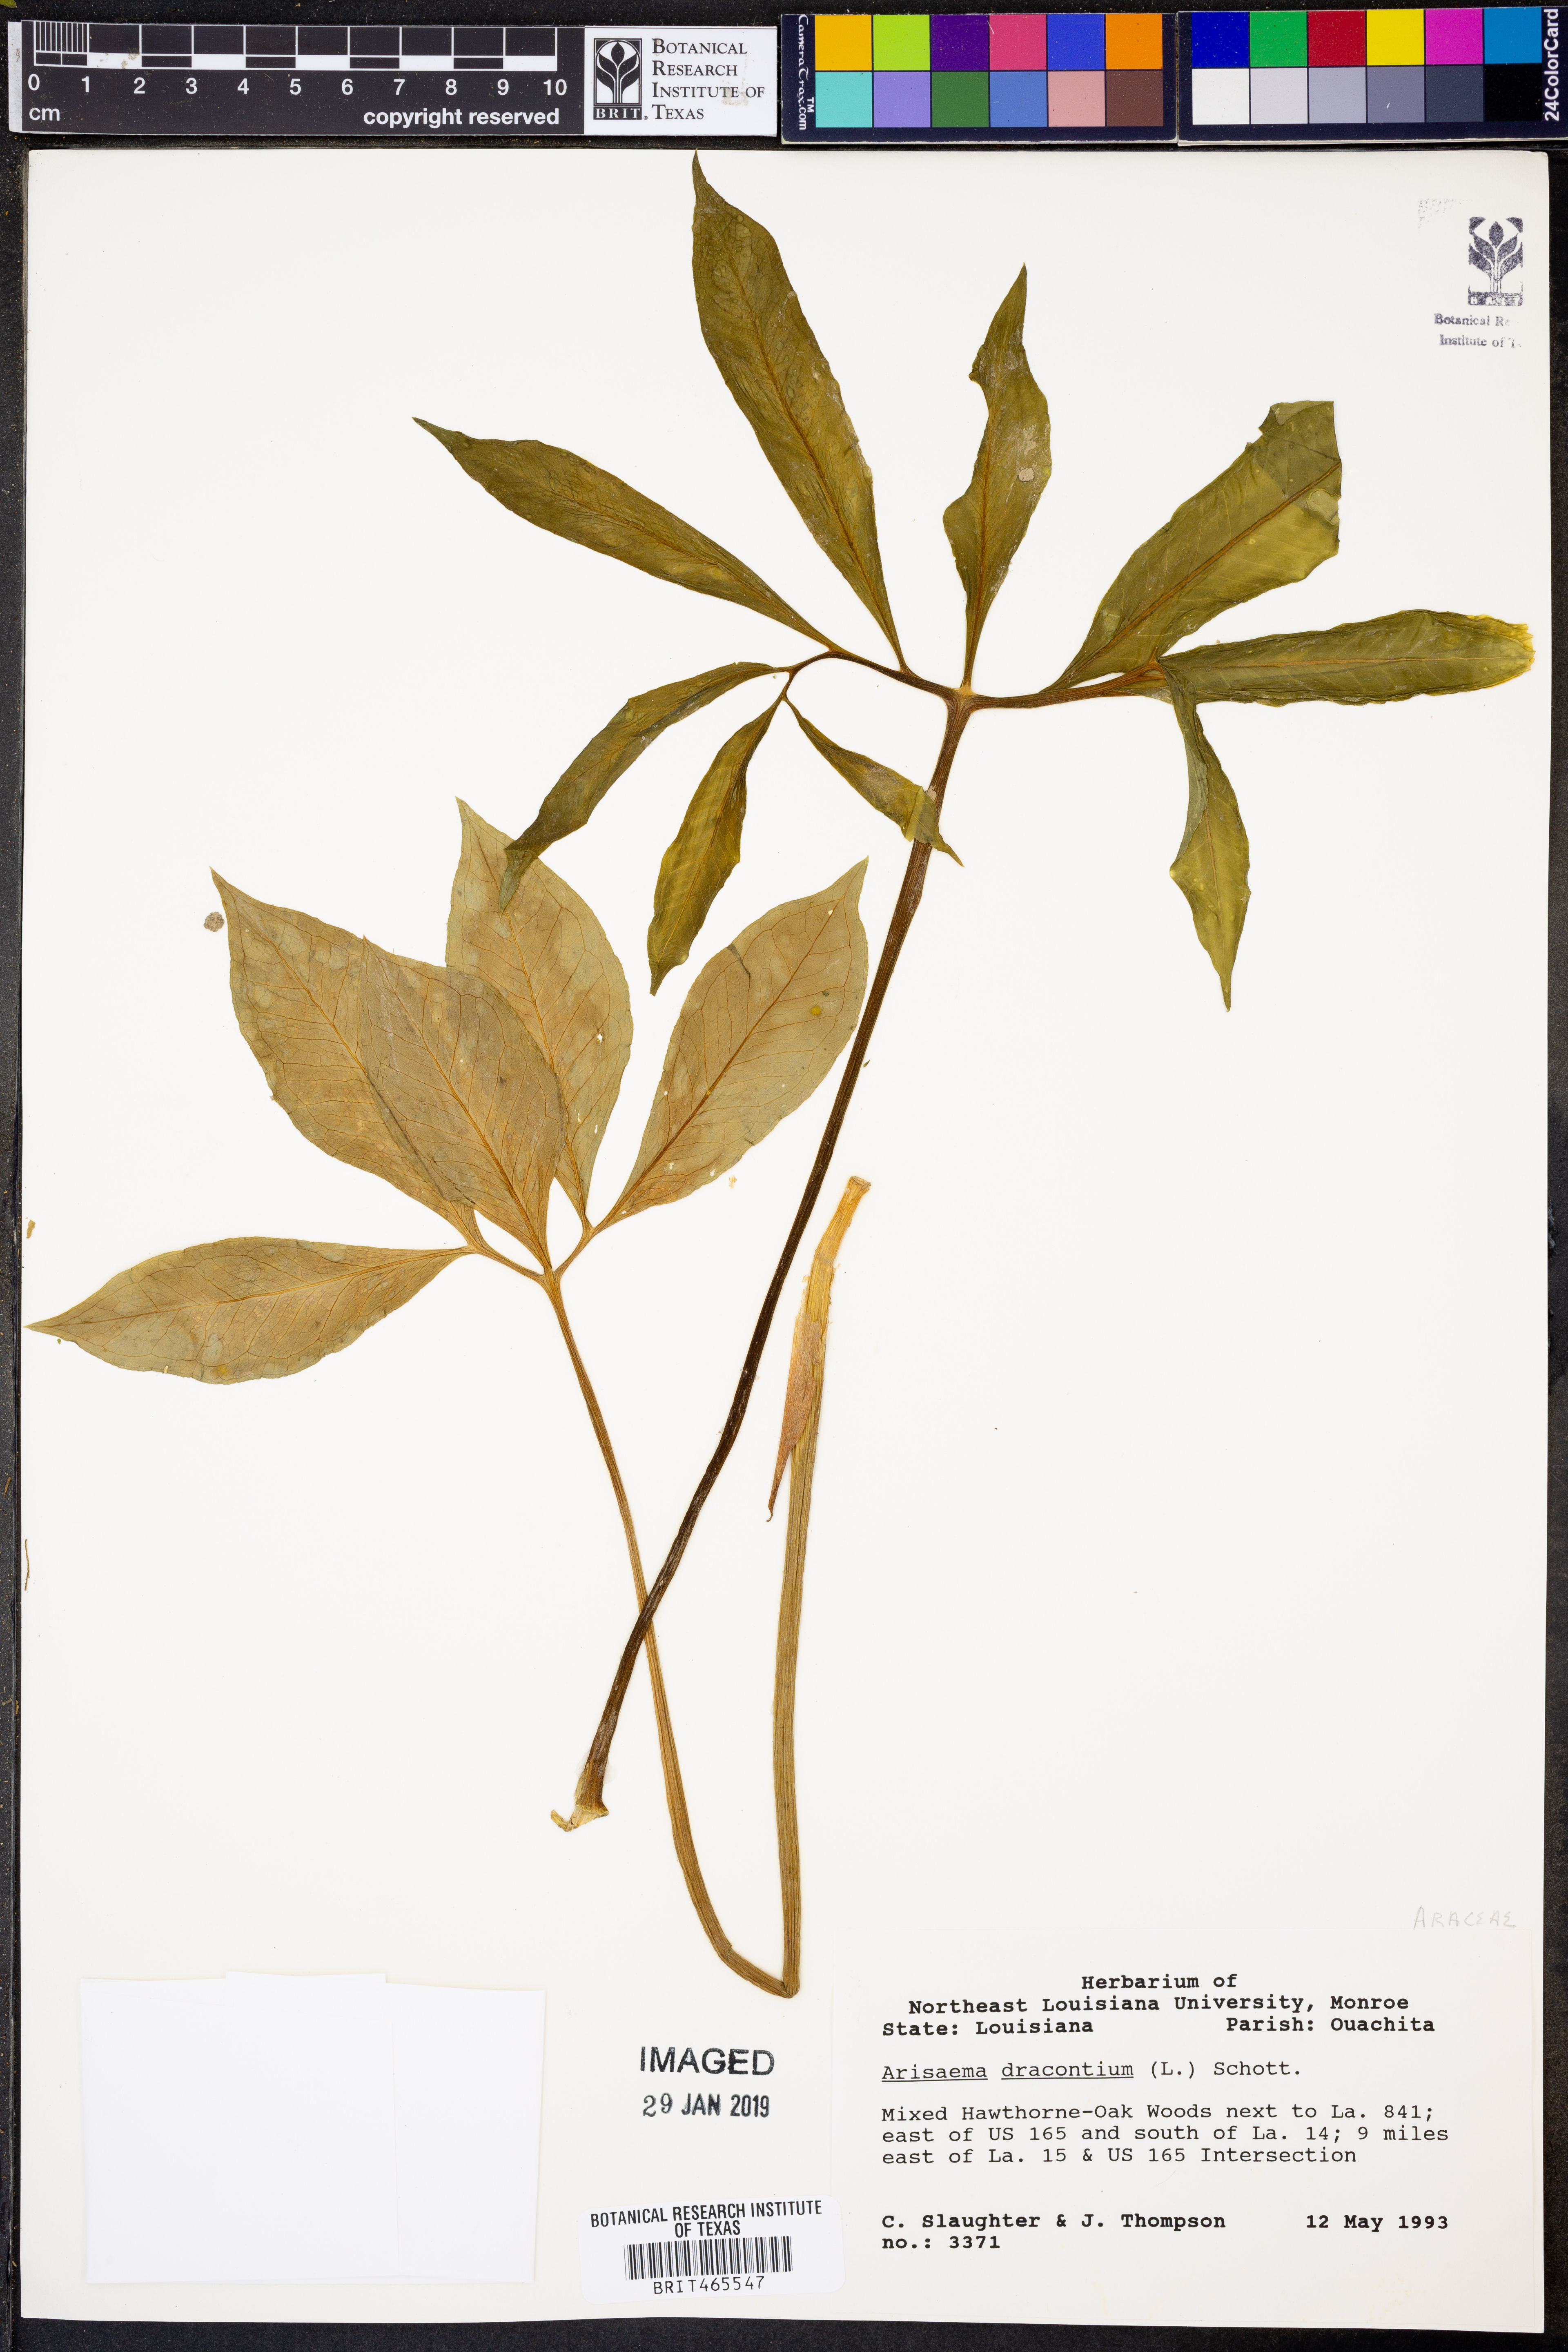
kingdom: Plantae
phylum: Tracheophyta
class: Liliopsida
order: Alismatales
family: Araceae
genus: Arisaema
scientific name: Arisaema dracontium
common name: Dragon-arum
